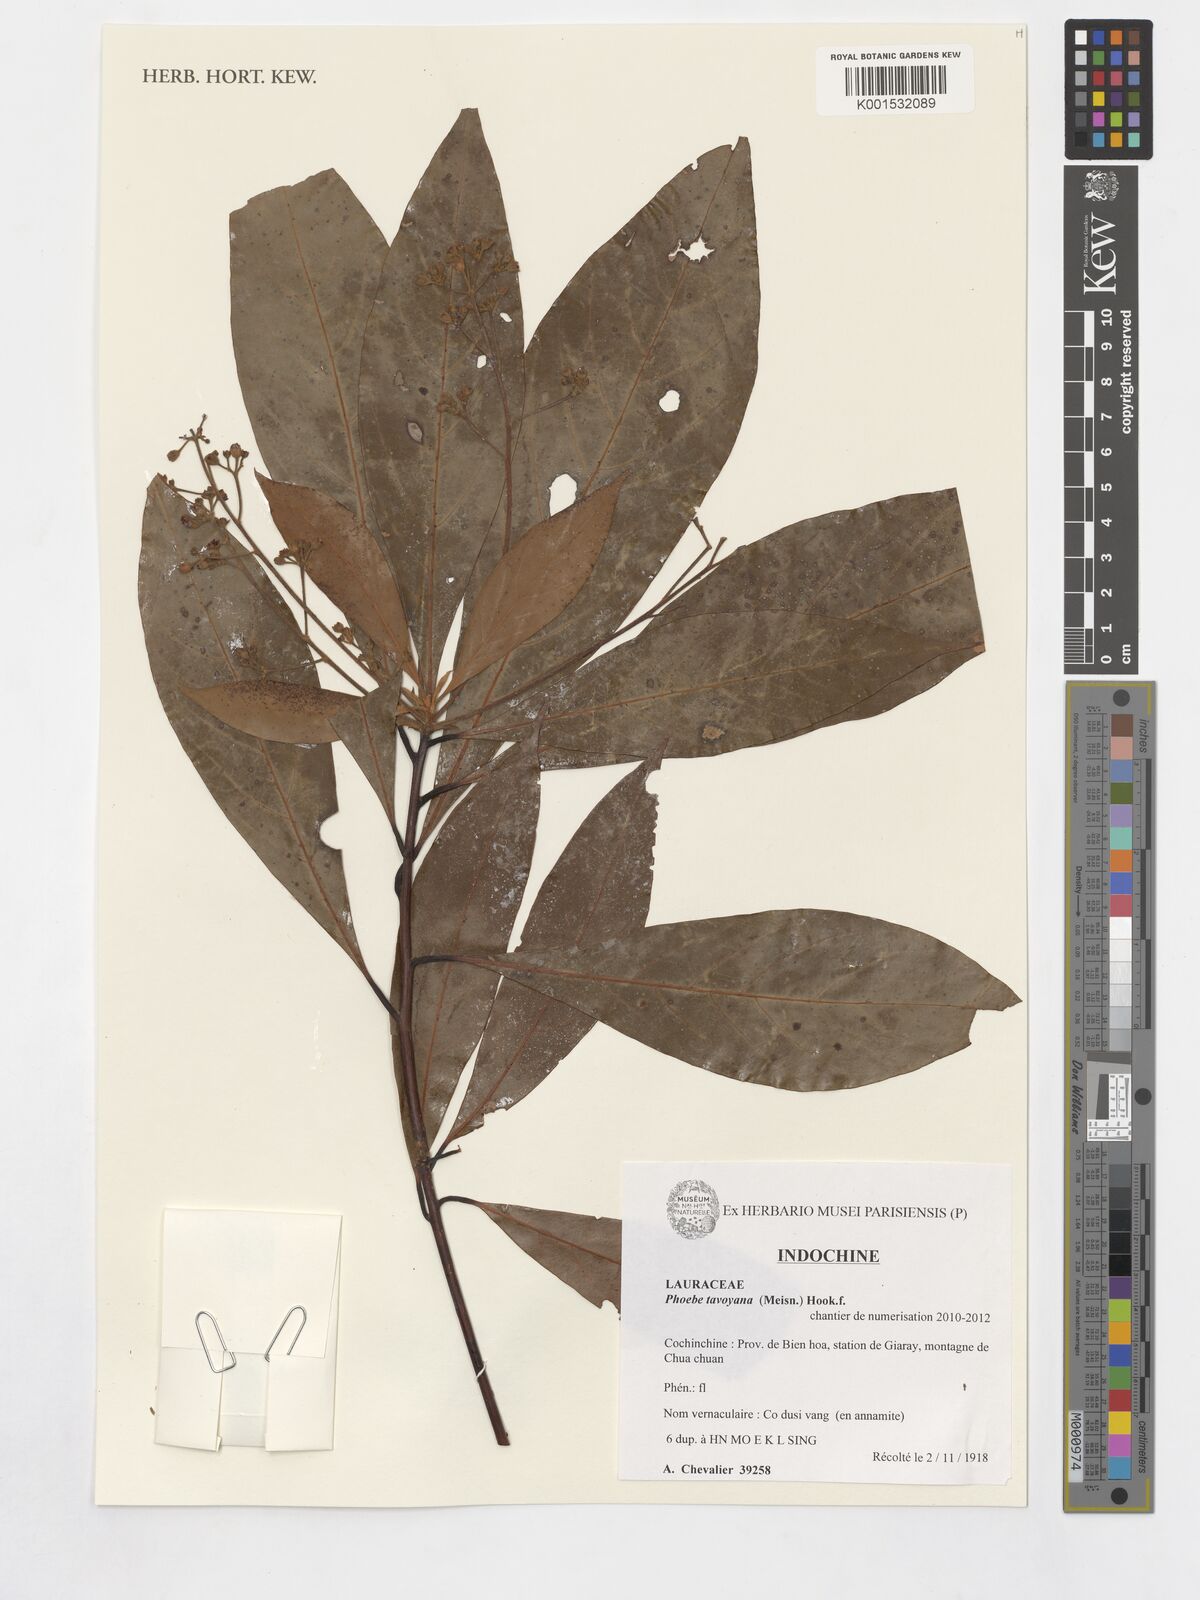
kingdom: Plantae
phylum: Tracheophyta
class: Magnoliopsida
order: Laurales
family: Lauraceae
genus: Phoebe
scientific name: Phoebe tavoyana
